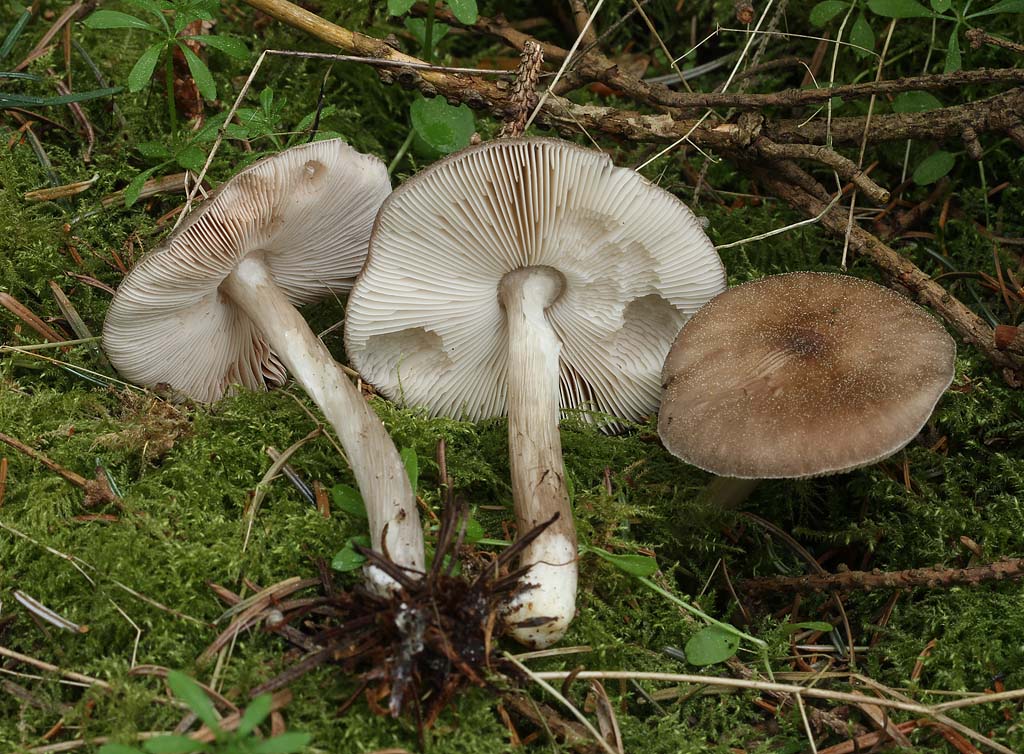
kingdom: Fungi
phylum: Basidiomycota
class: Agaricomycetes
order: Agaricales
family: Pluteaceae
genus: Pluteus
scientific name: Pluteus primus
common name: tidlig skærmhat
